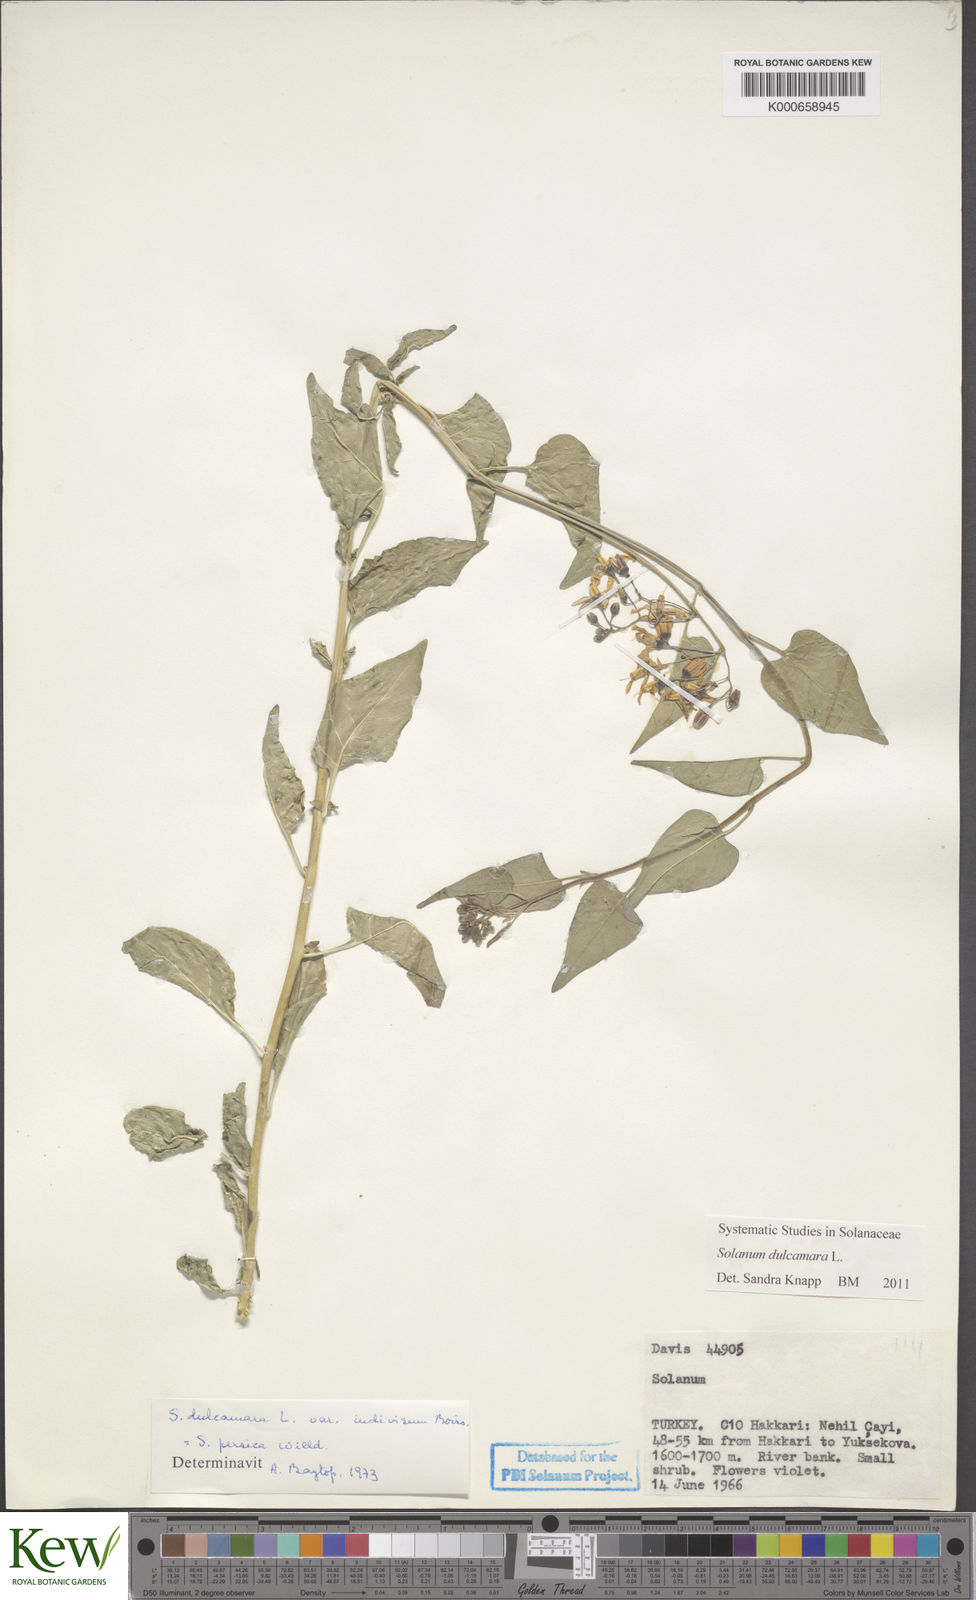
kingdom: Plantae
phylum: Tracheophyta
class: Magnoliopsida
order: Solanales
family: Solanaceae
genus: Solanum
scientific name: Solanum dulcamara
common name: Climbing nightshade
